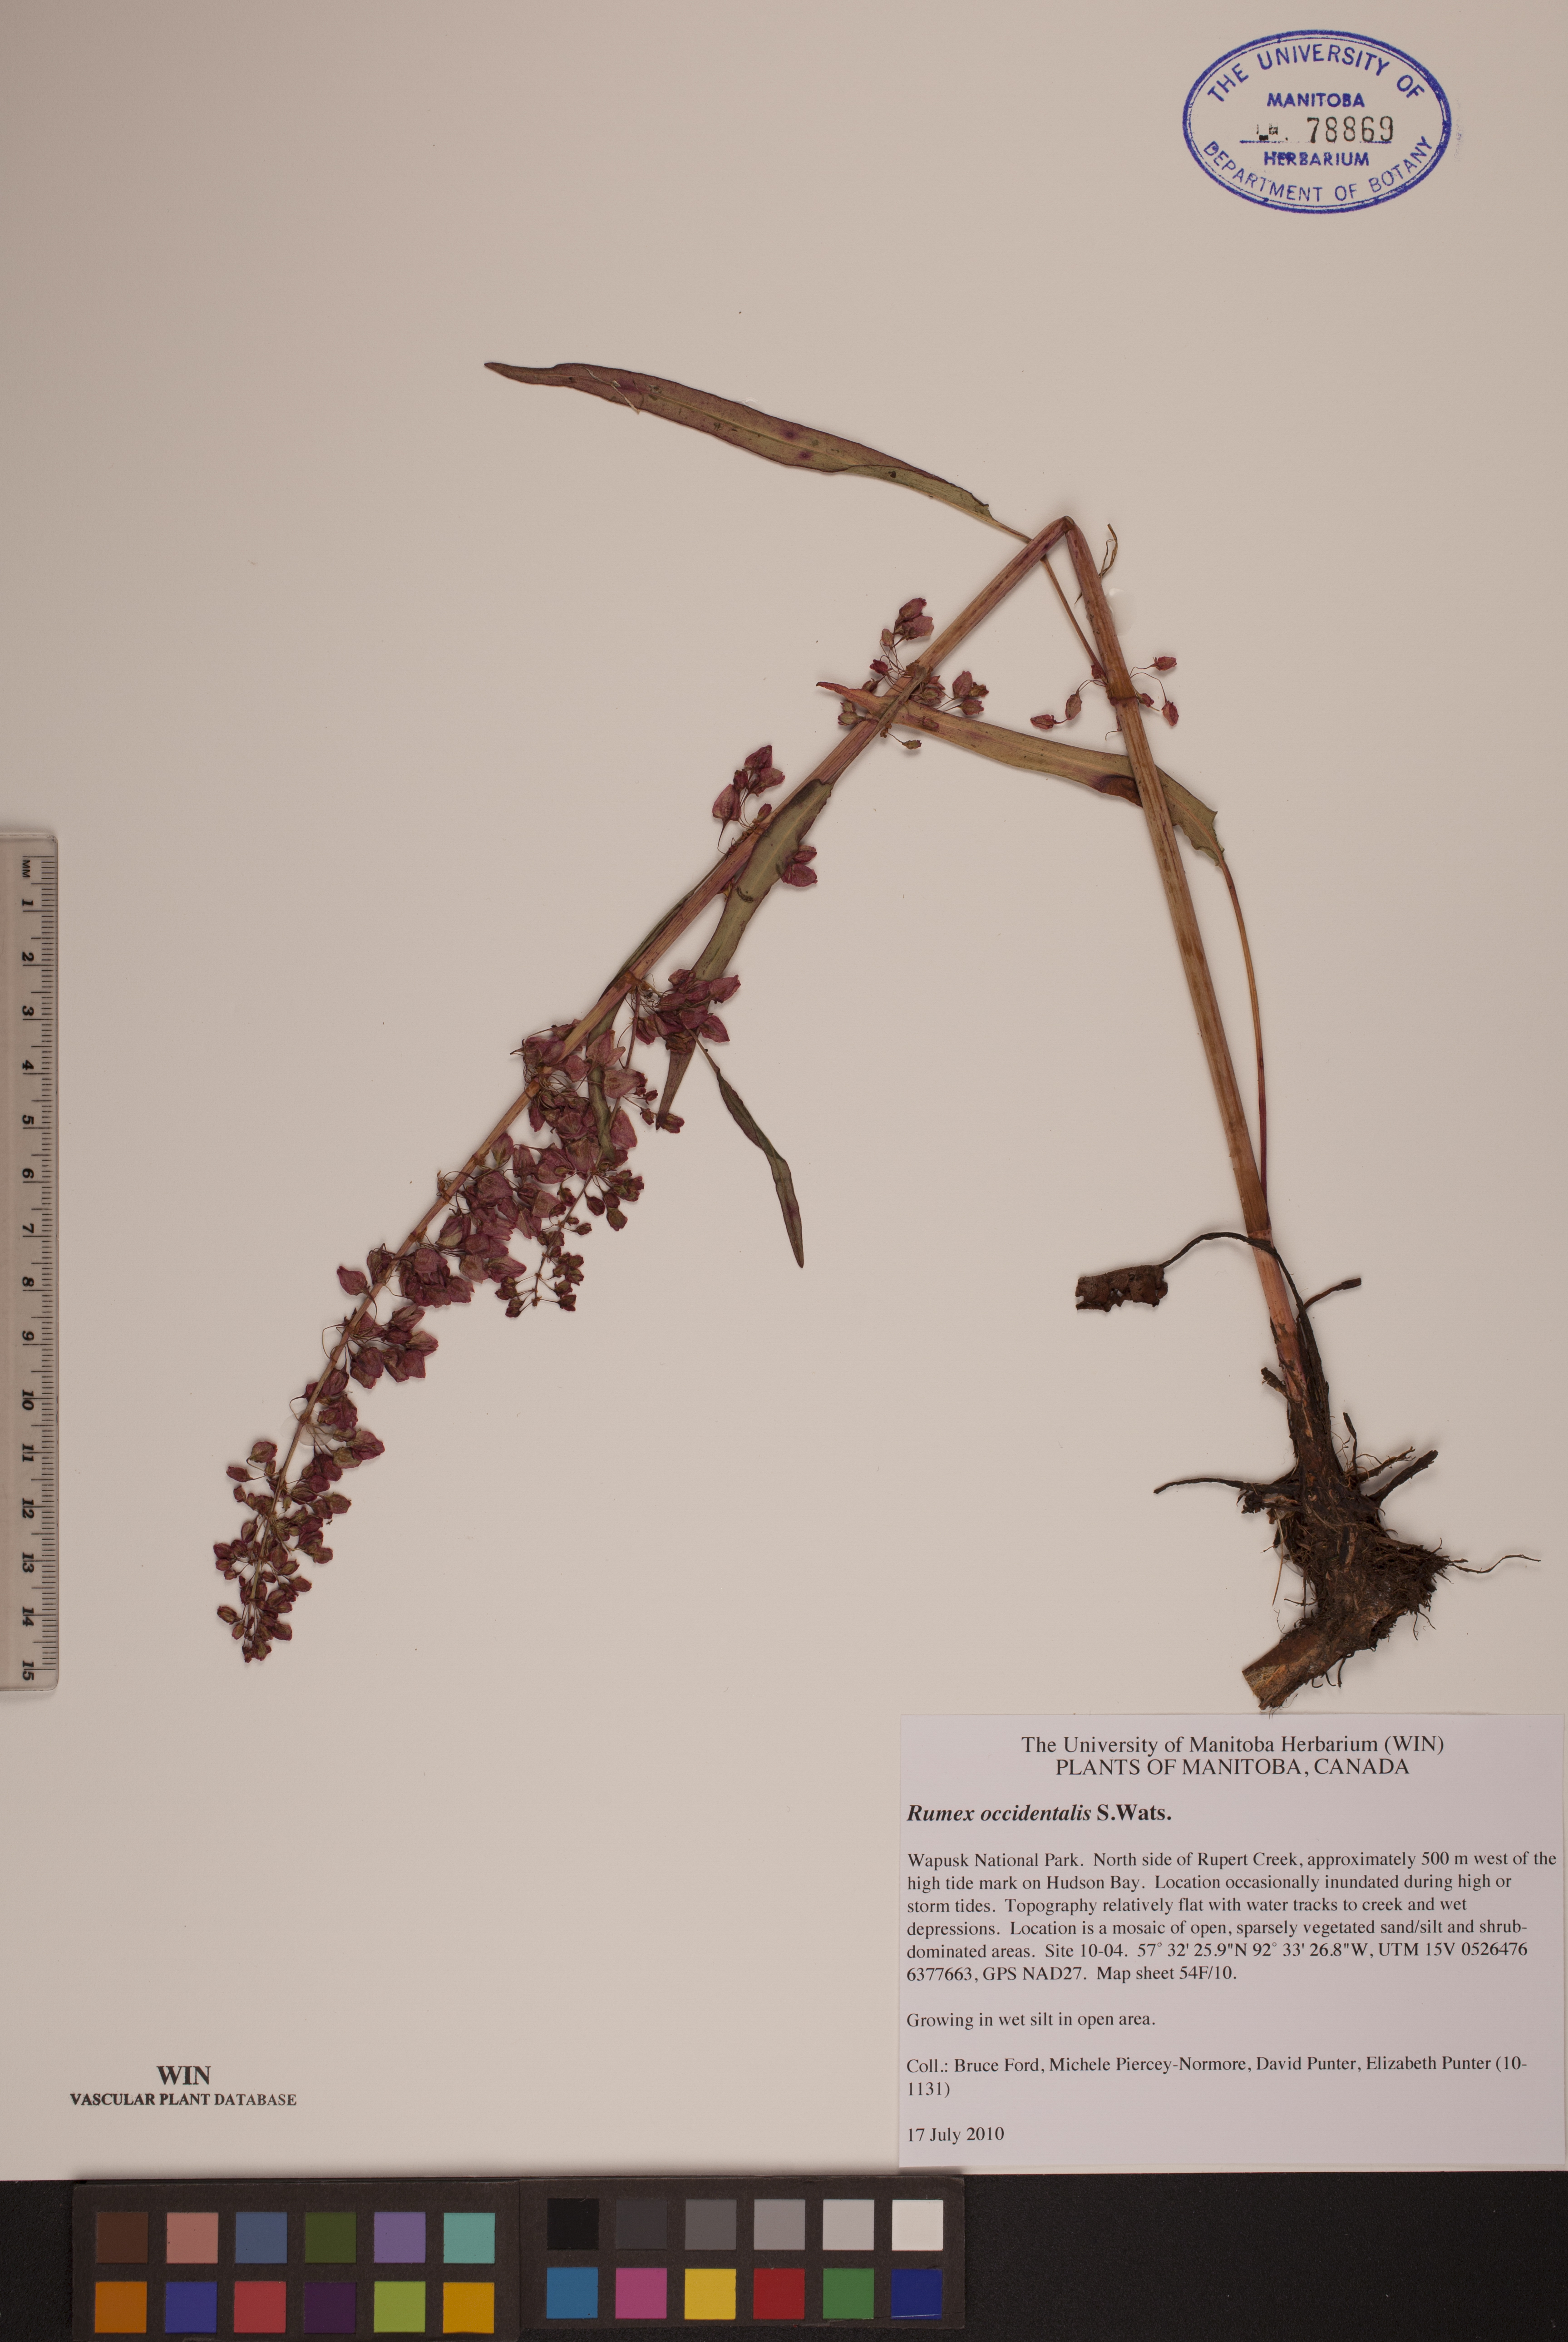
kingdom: Plantae
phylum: Tracheophyta
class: Magnoliopsida
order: Caryophyllales
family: Polygonaceae
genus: Rumex
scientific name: Rumex occidentalis
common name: Western dock
